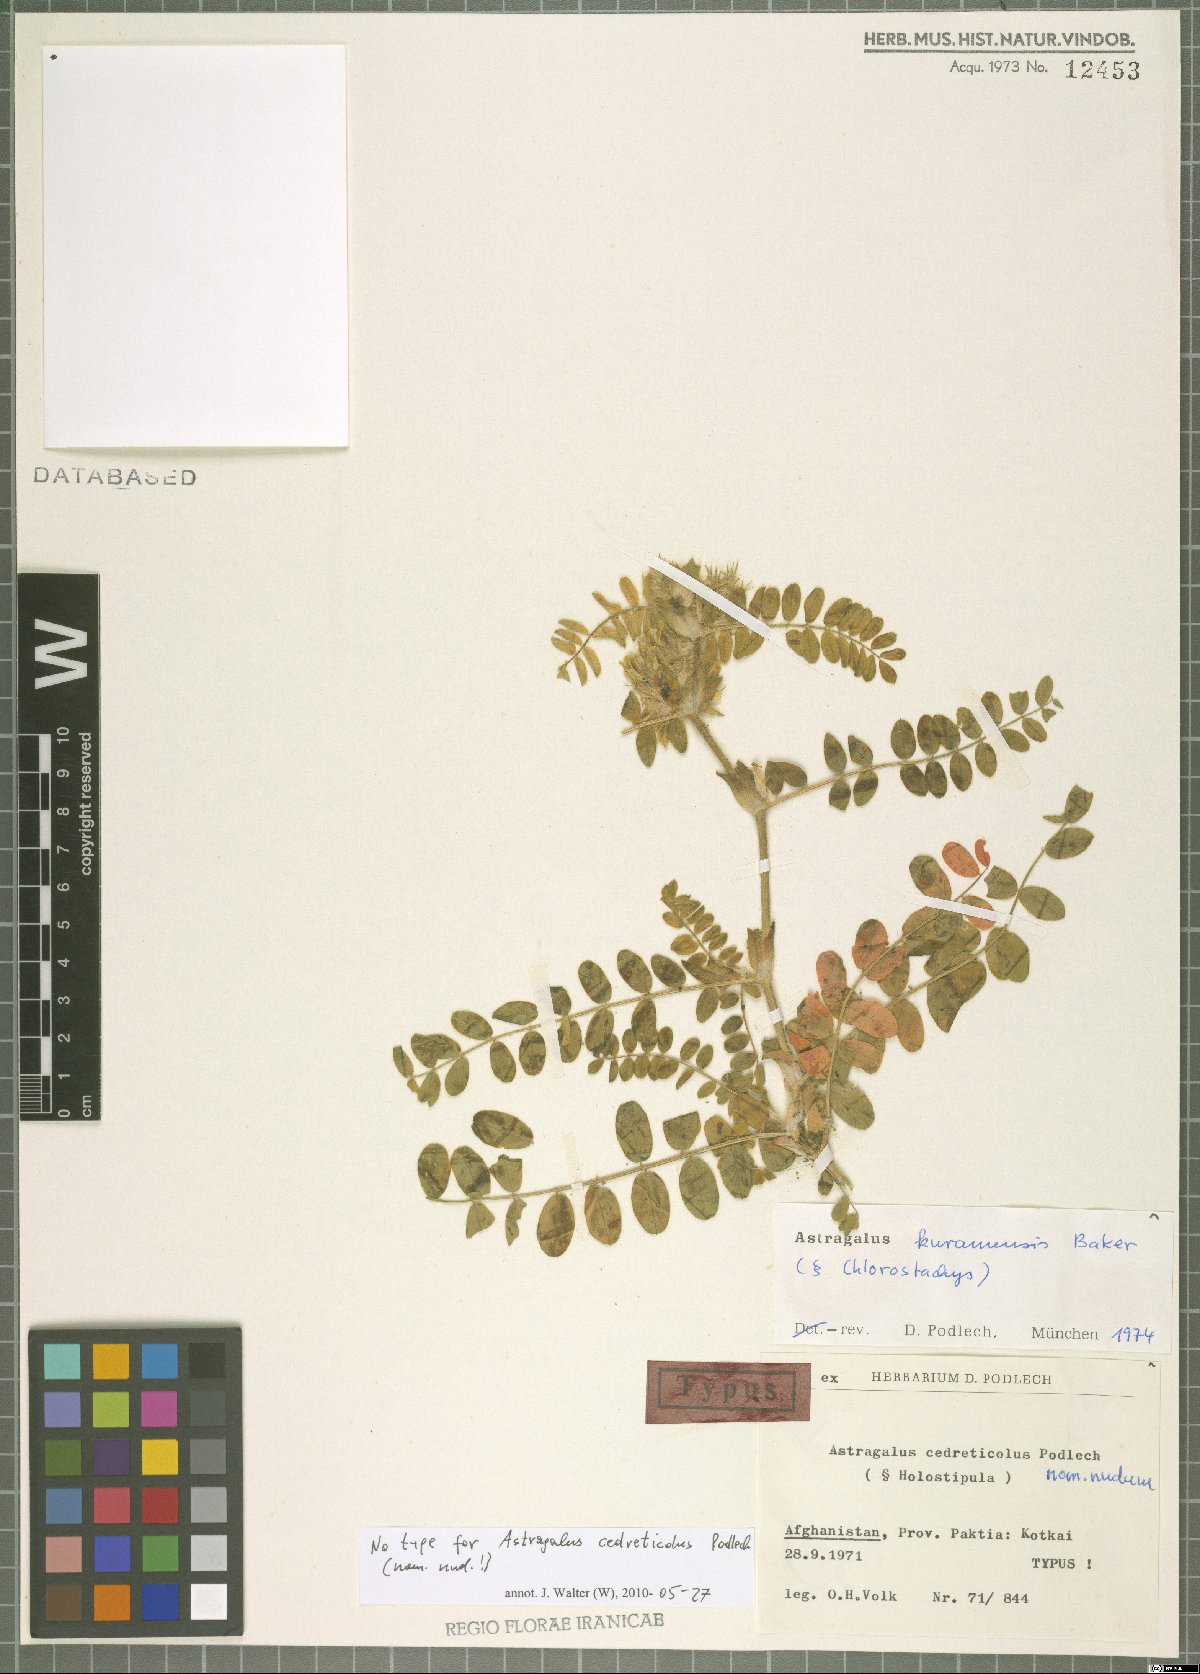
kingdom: Plantae
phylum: Tracheophyta
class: Magnoliopsida
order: Fabales
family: Fabaceae
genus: Astragalus
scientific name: Astragalus kuramensis
